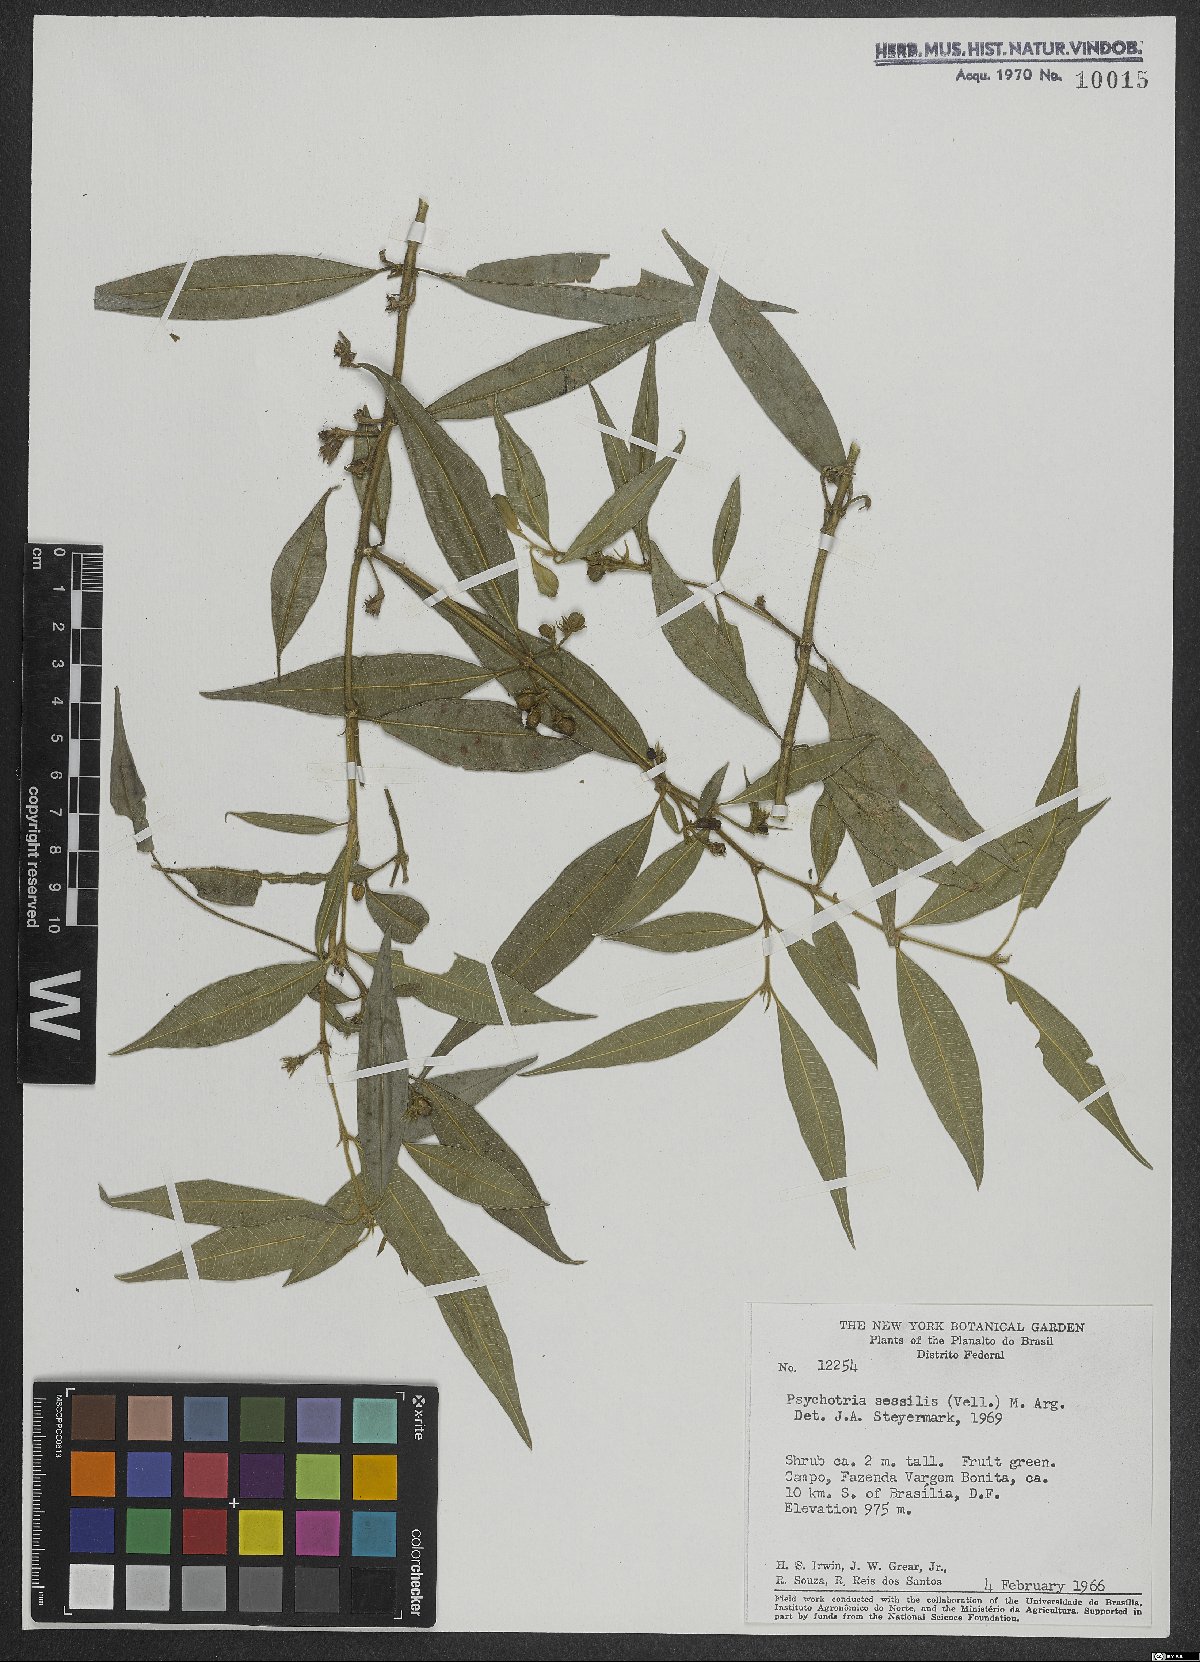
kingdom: Plantae
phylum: Tracheophyta
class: Magnoliopsida
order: Gentianales
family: Rubiaceae
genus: Rudgea
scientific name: Rudgea sessilis
